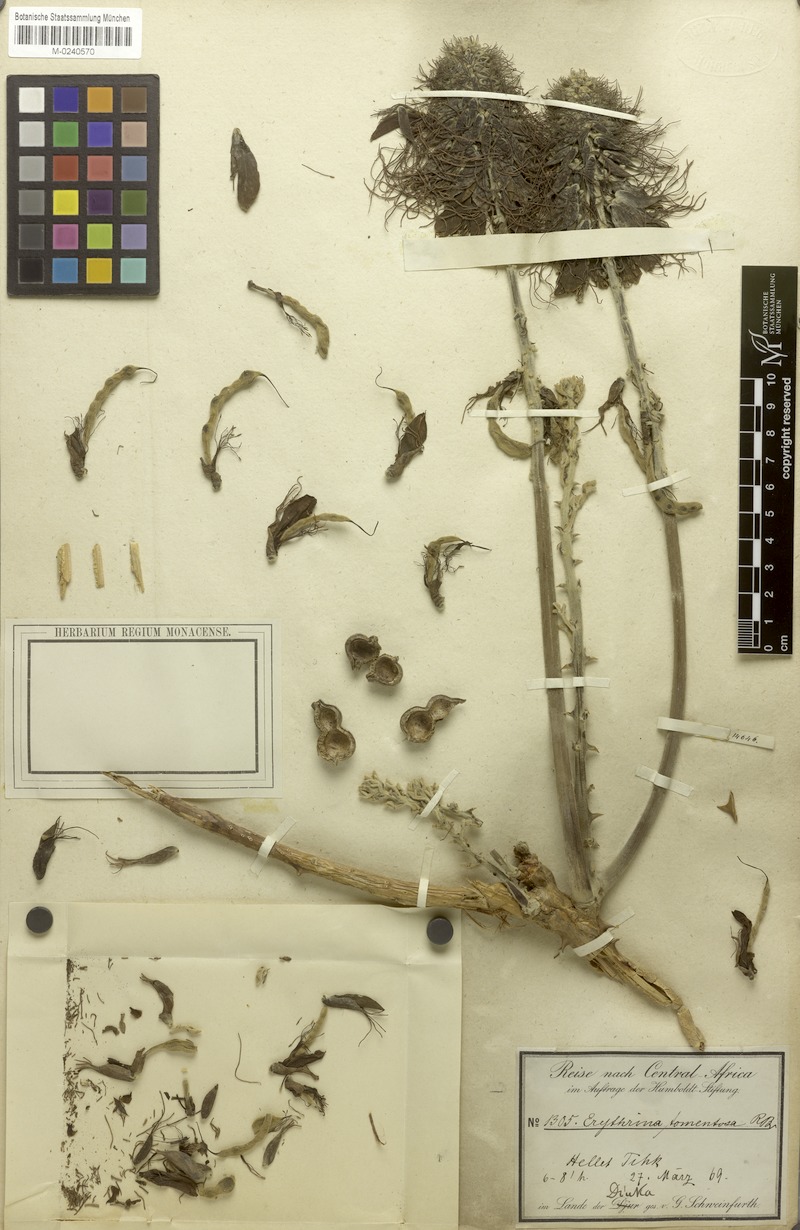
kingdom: Plantae
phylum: Tracheophyta
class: Magnoliopsida
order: Fabales
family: Fabaceae
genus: Erythrina
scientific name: Erythrina abyssinica
